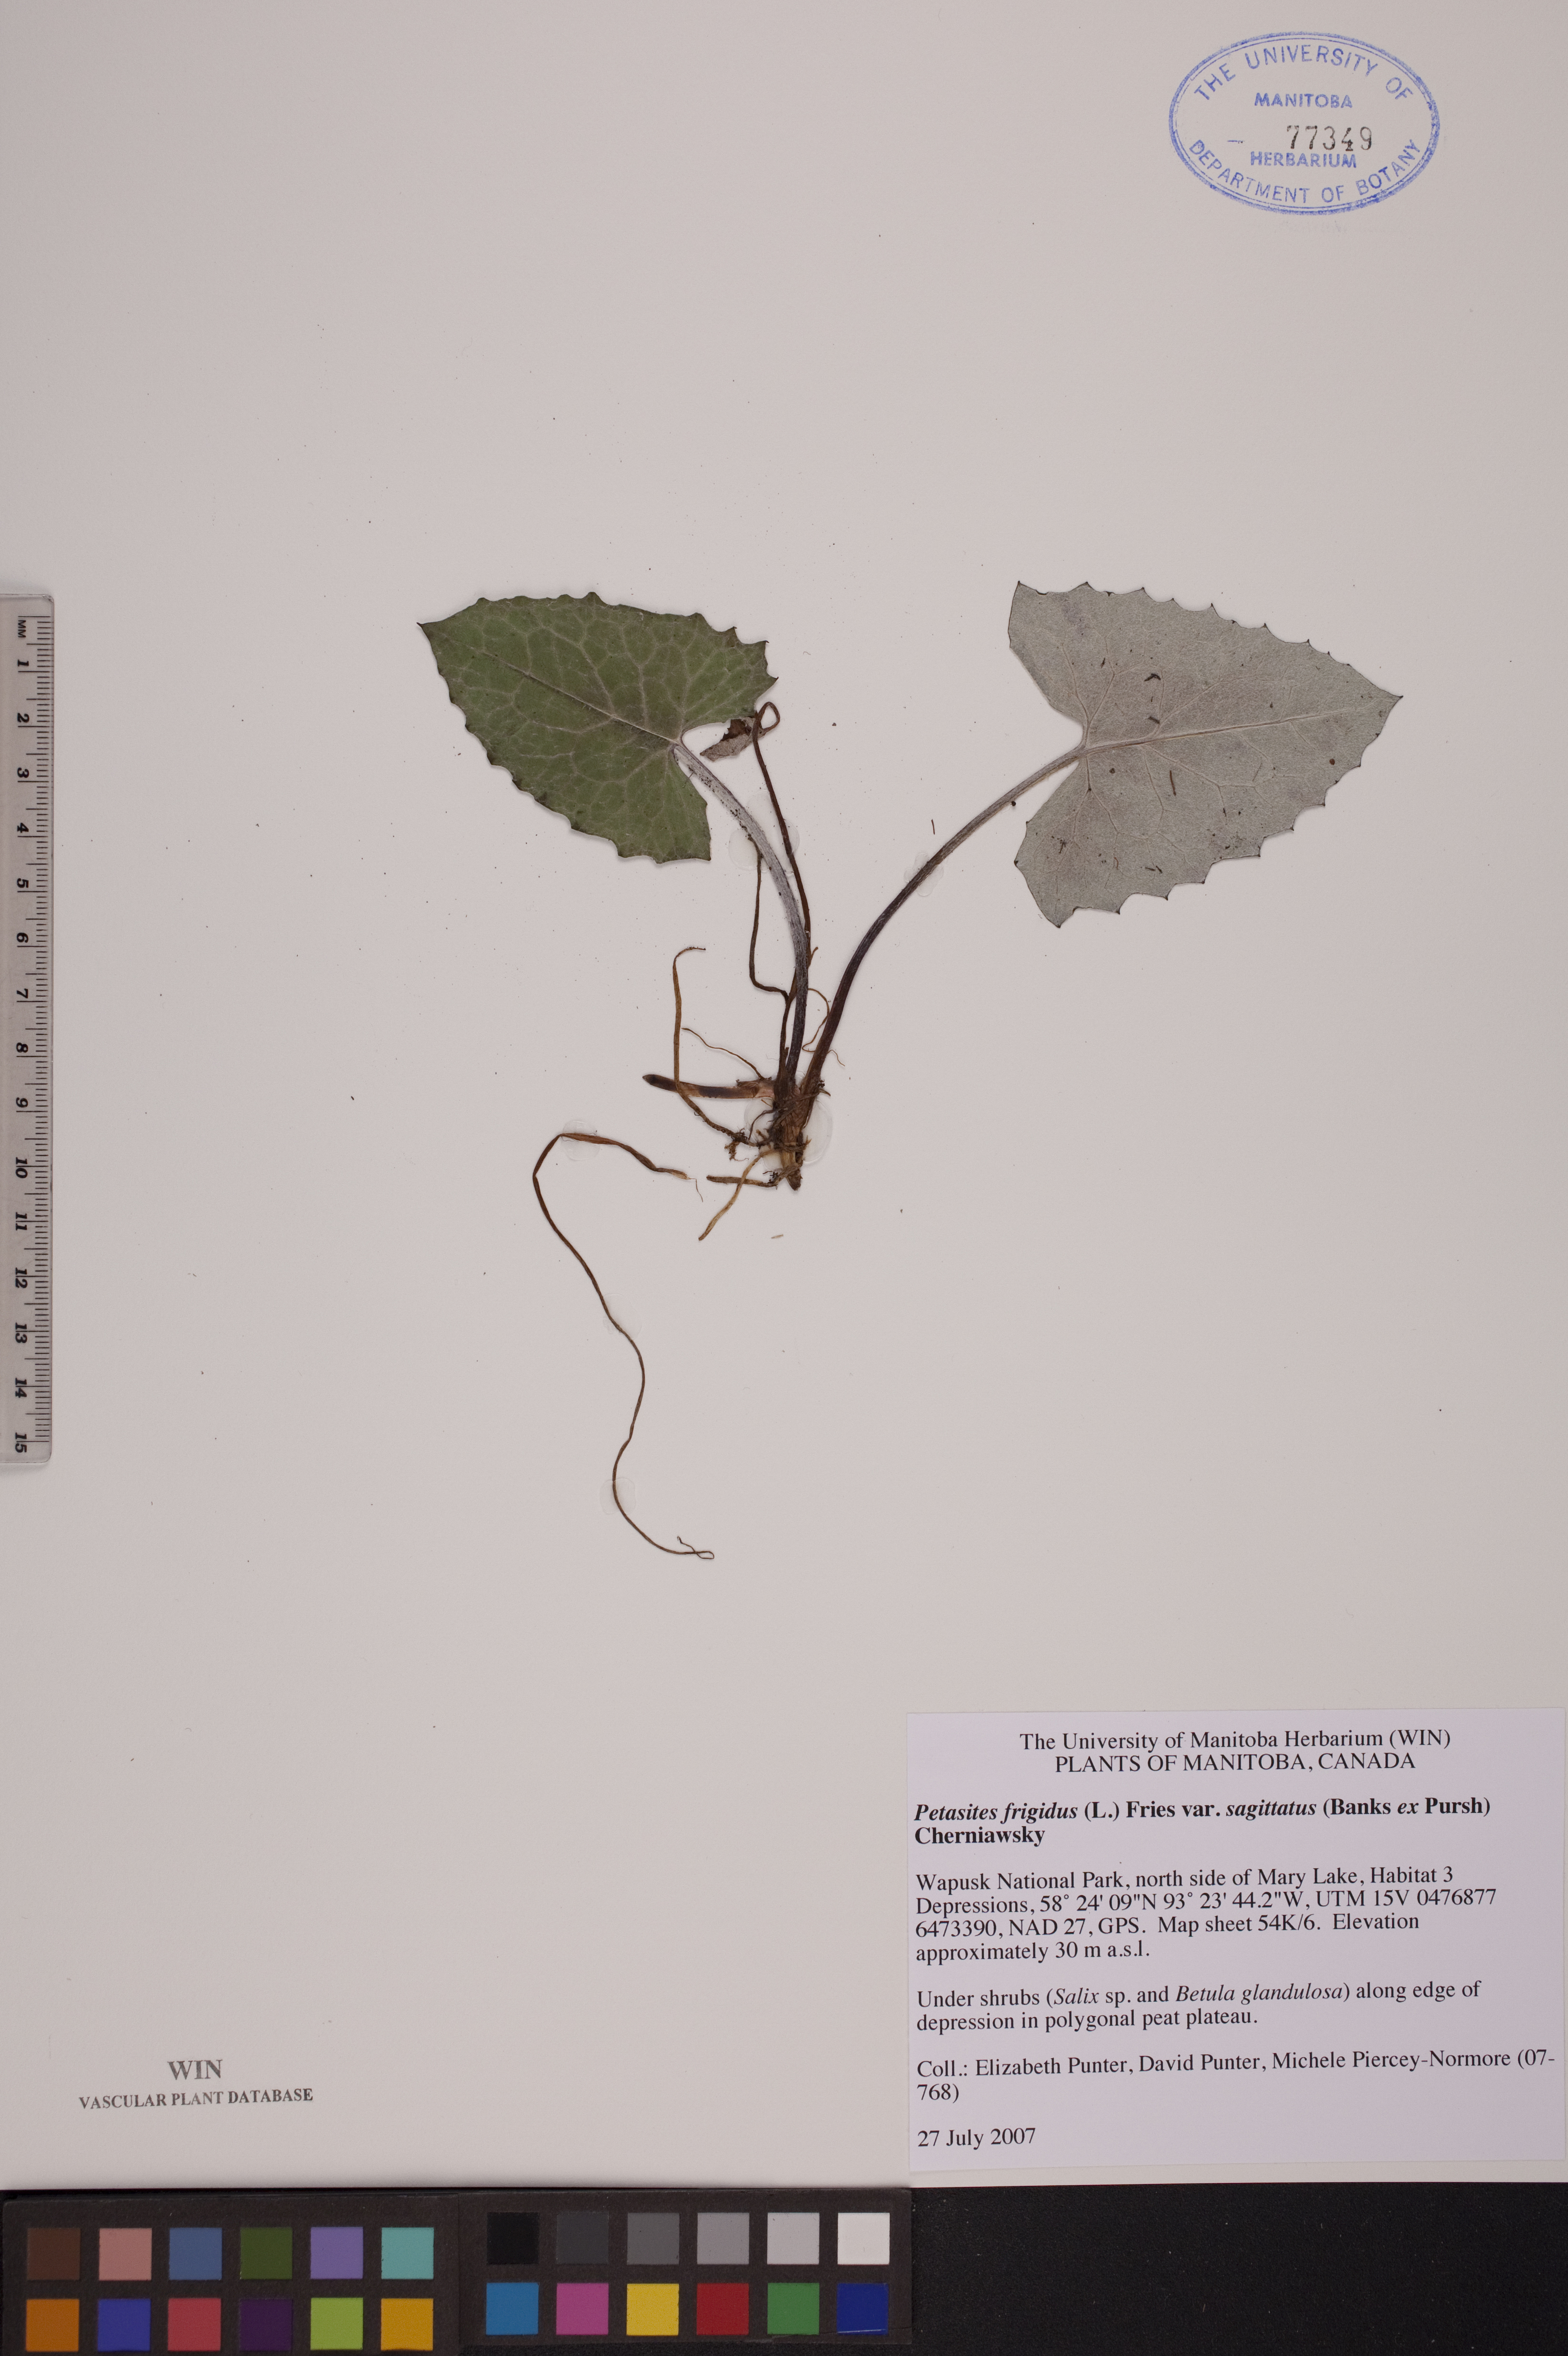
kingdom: Plantae
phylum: Tracheophyta
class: Magnoliopsida
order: Asterales
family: Asteraceae
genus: Petasites
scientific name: Petasites frigidus
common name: Arctic butterbur
